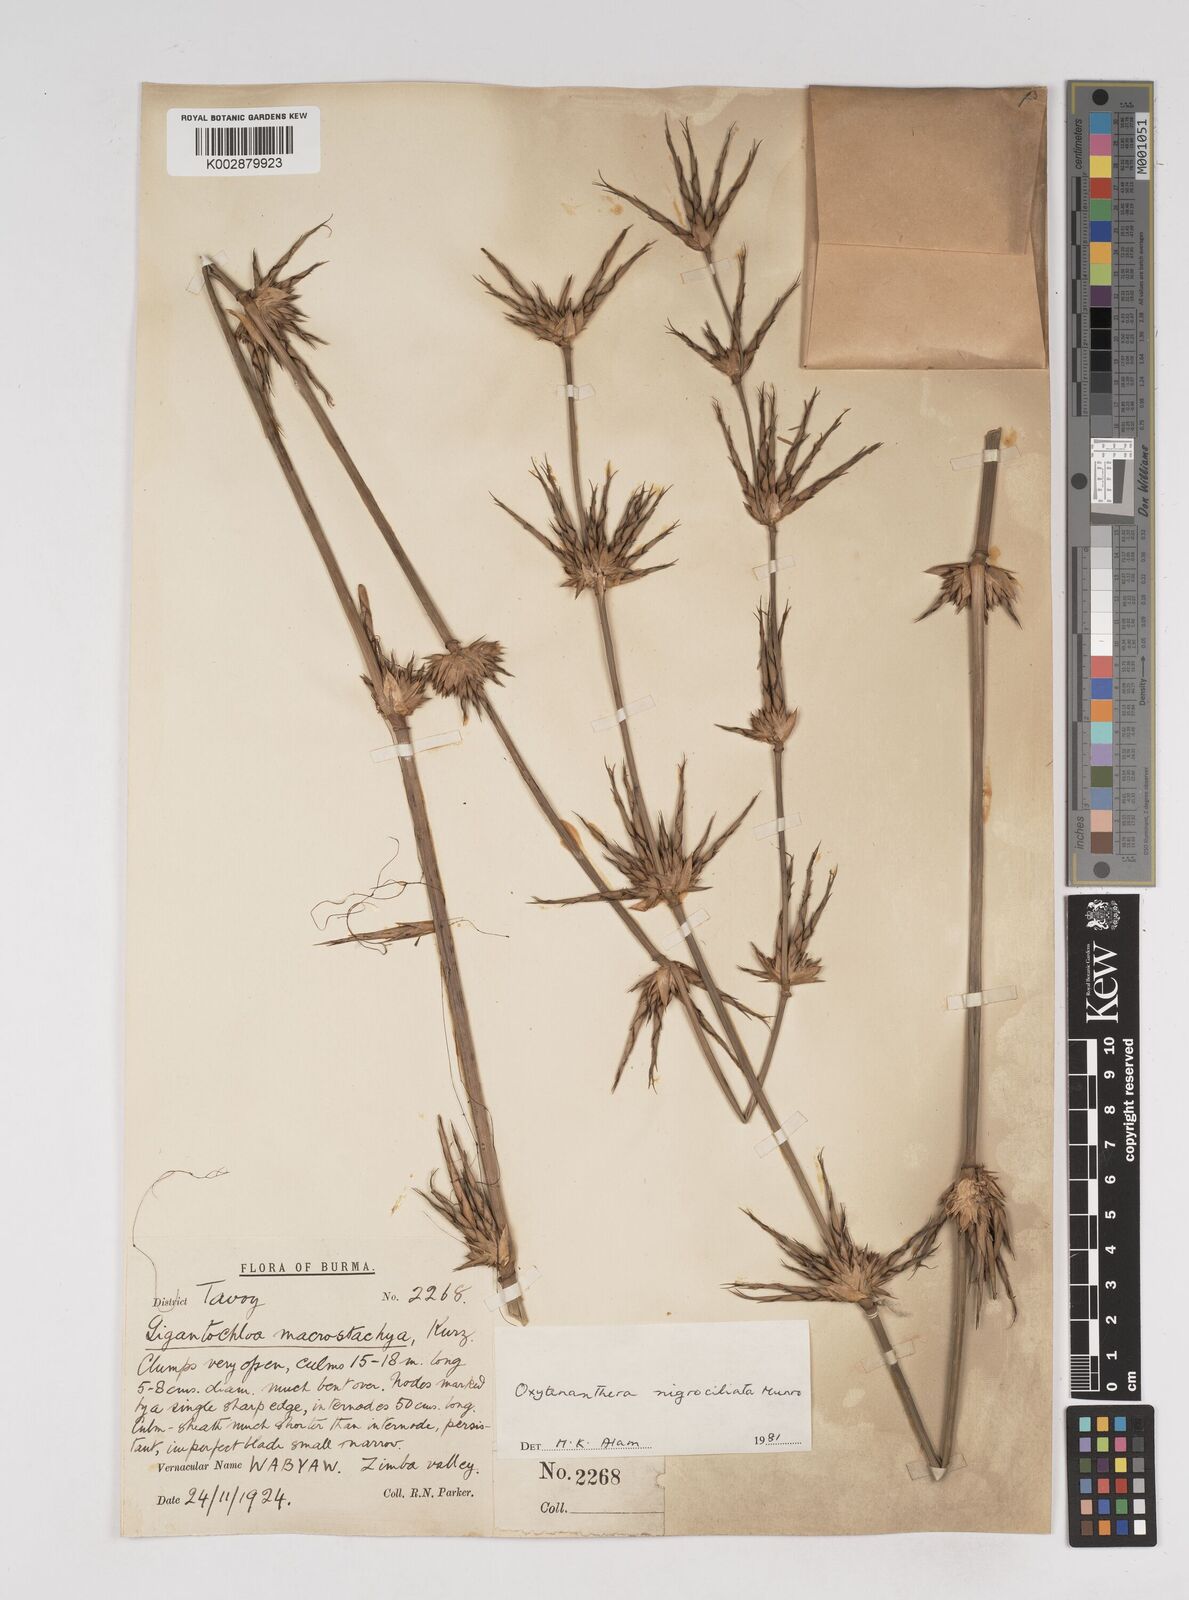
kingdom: Plantae
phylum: Tracheophyta
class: Liliopsida
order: Poales
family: Poaceae
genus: Gigantochloa
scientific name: Gigantochloa nigrociliata
